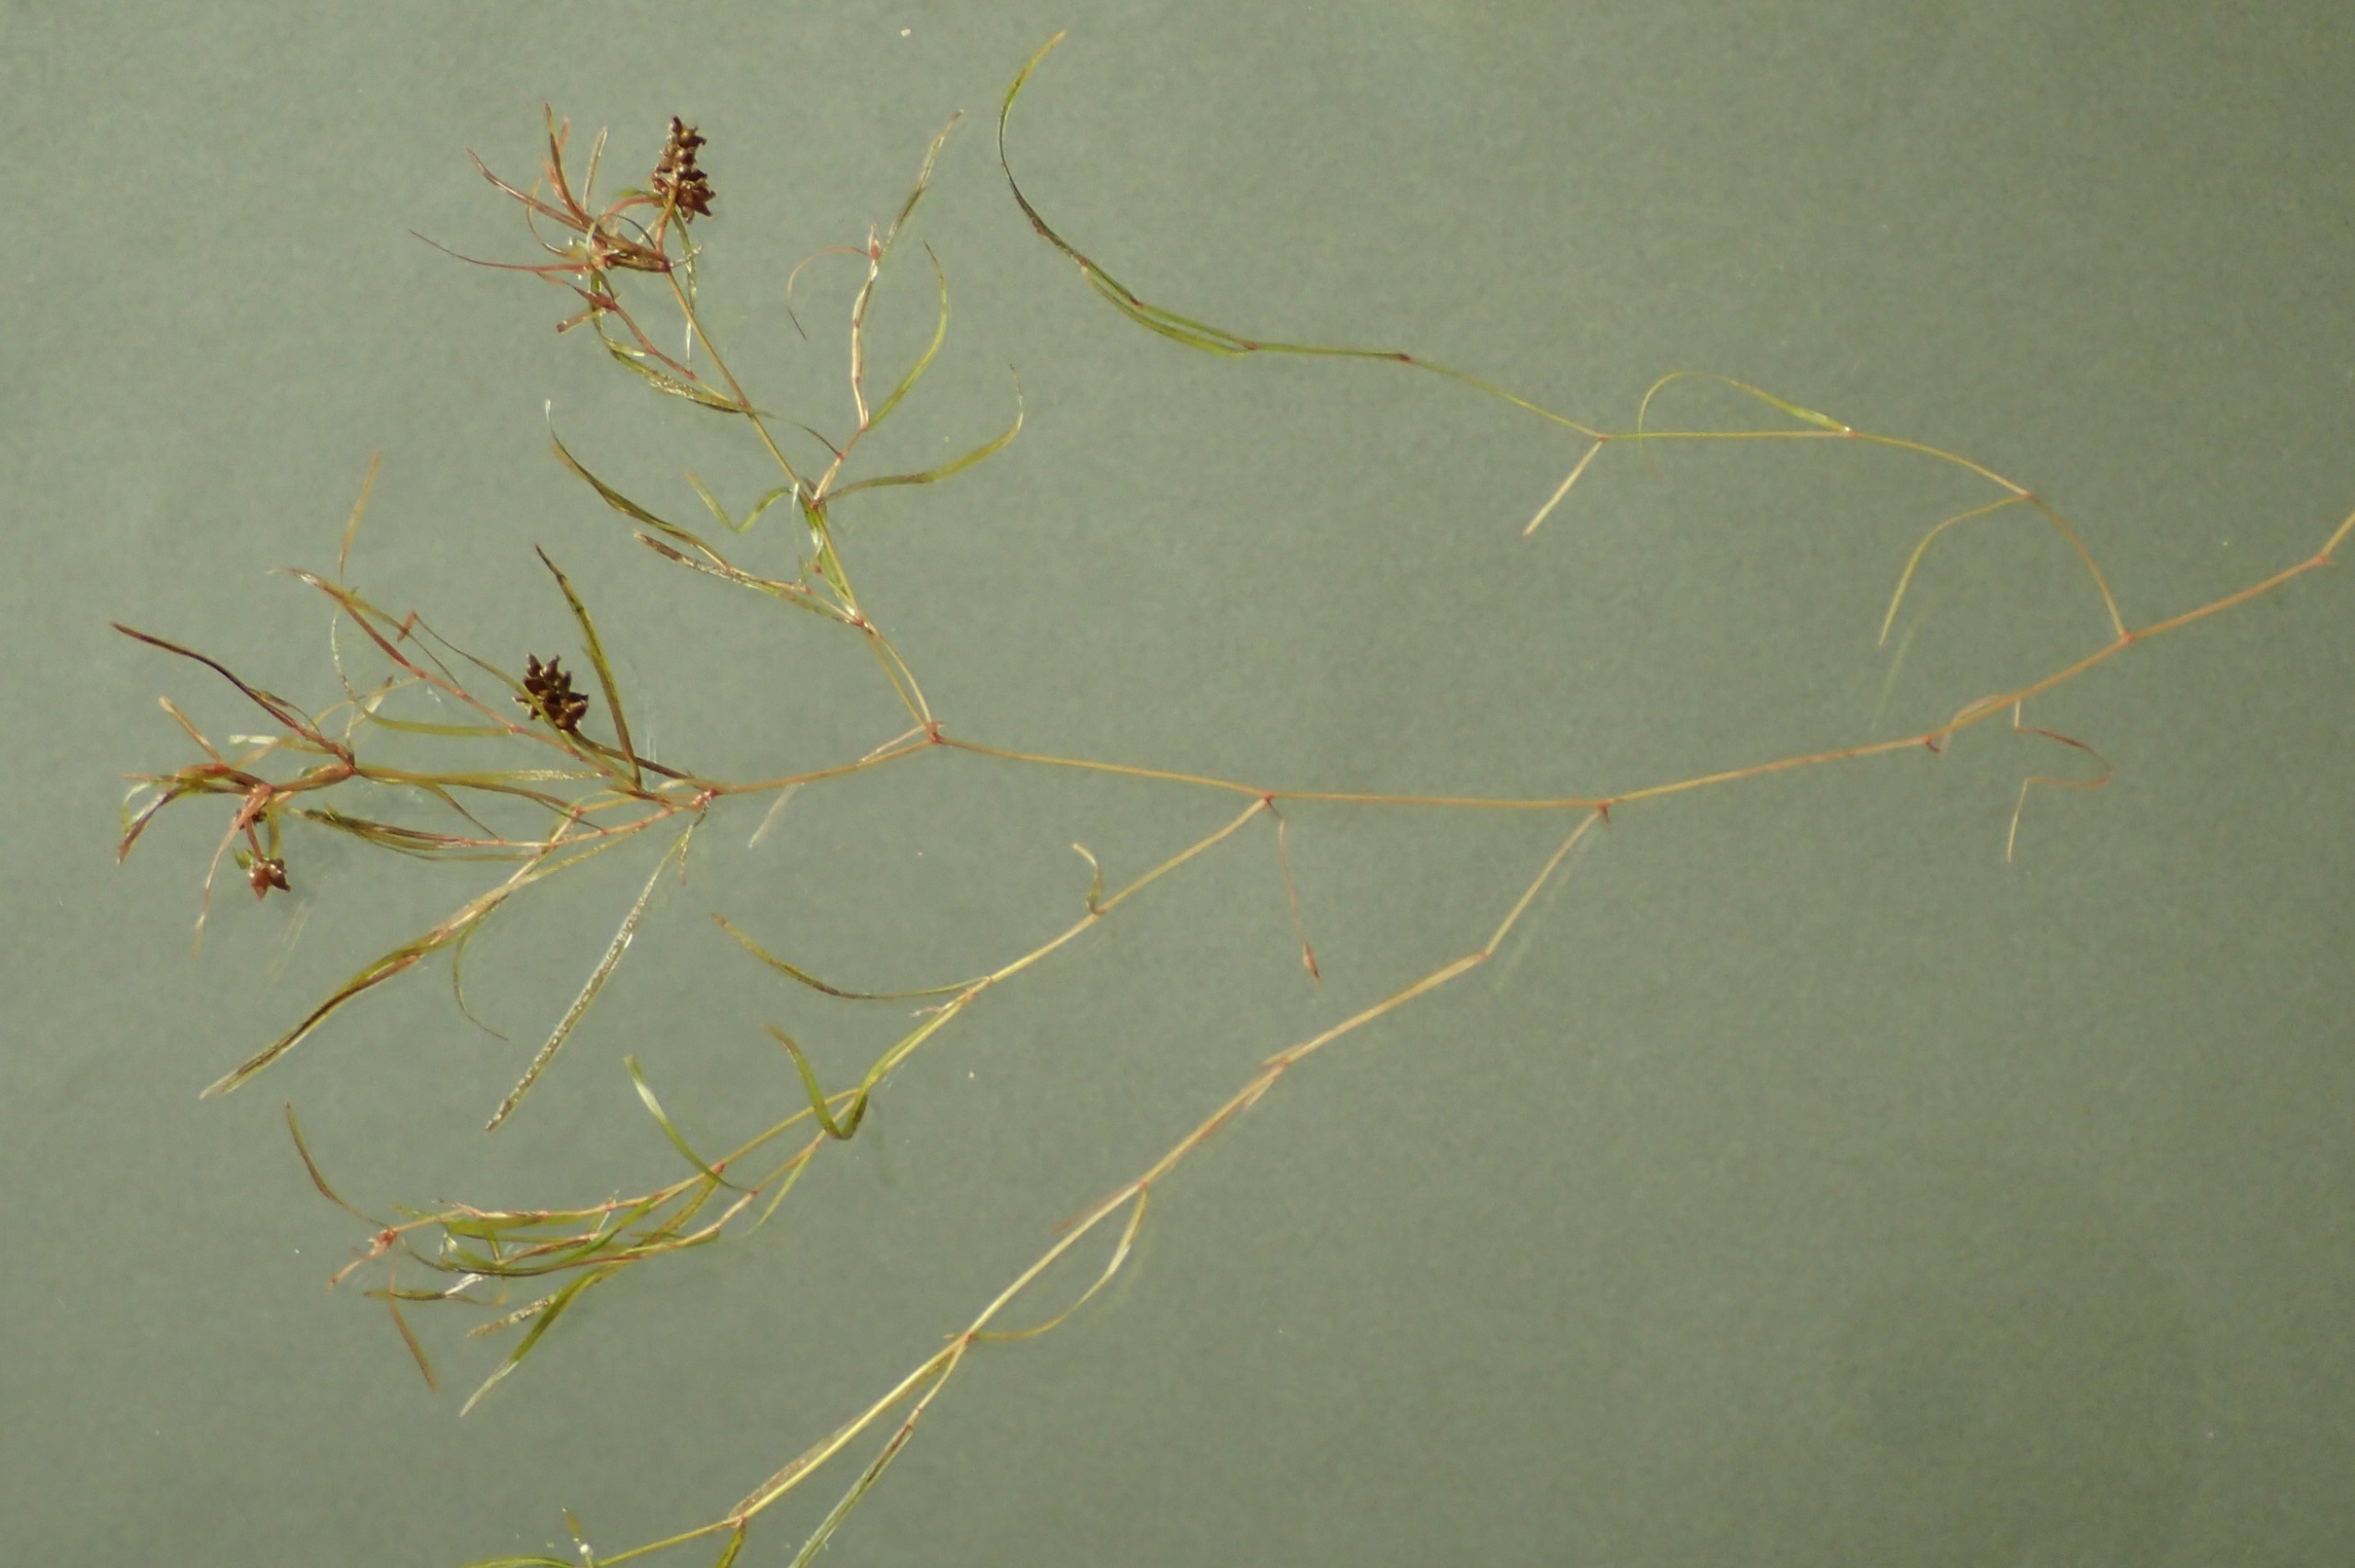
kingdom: Plantae
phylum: Tracheophyta
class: Liliopsida
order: Alismatales
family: Potamogetonaceae
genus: Potamogeton
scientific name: Potamogeton berchtoldii
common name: Liden vandaks
